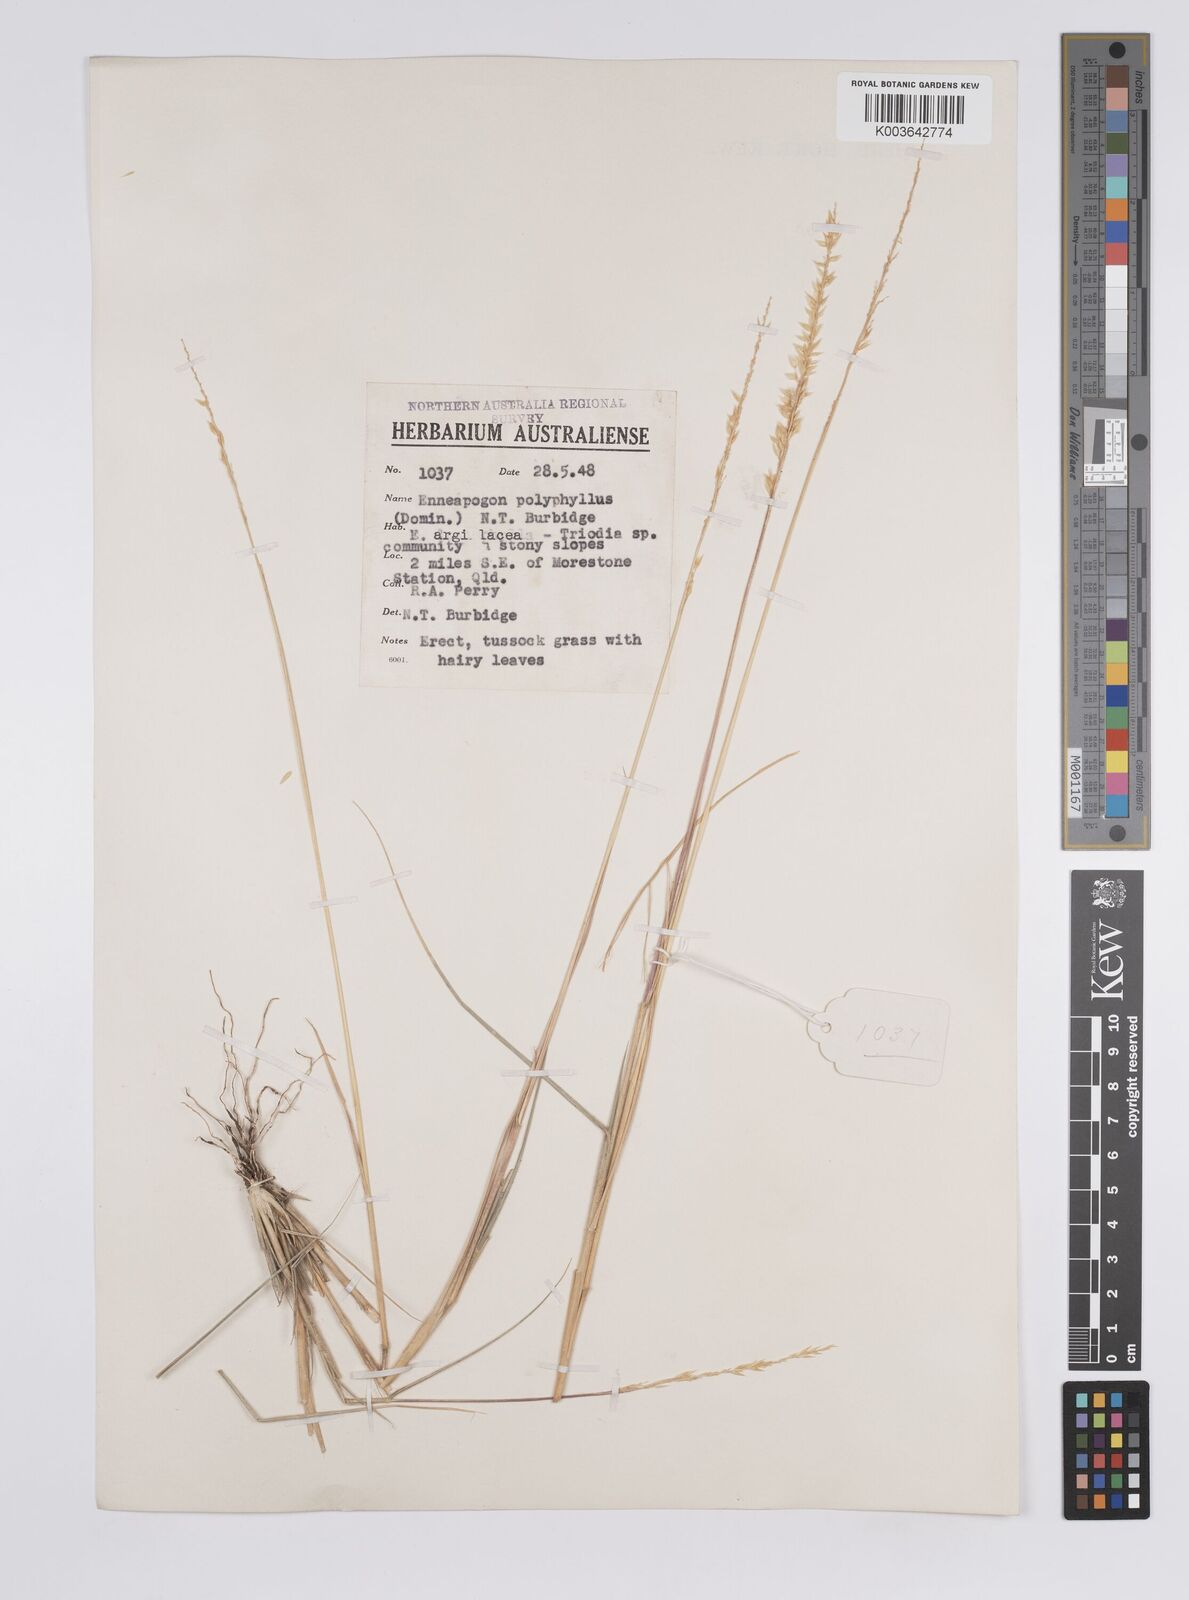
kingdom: Plantae
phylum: Tracheophyta
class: Liliopsida
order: Poales
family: Poaceae
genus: Enneapogon
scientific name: Enneapogon polyphyllus
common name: Leafy nineawn
